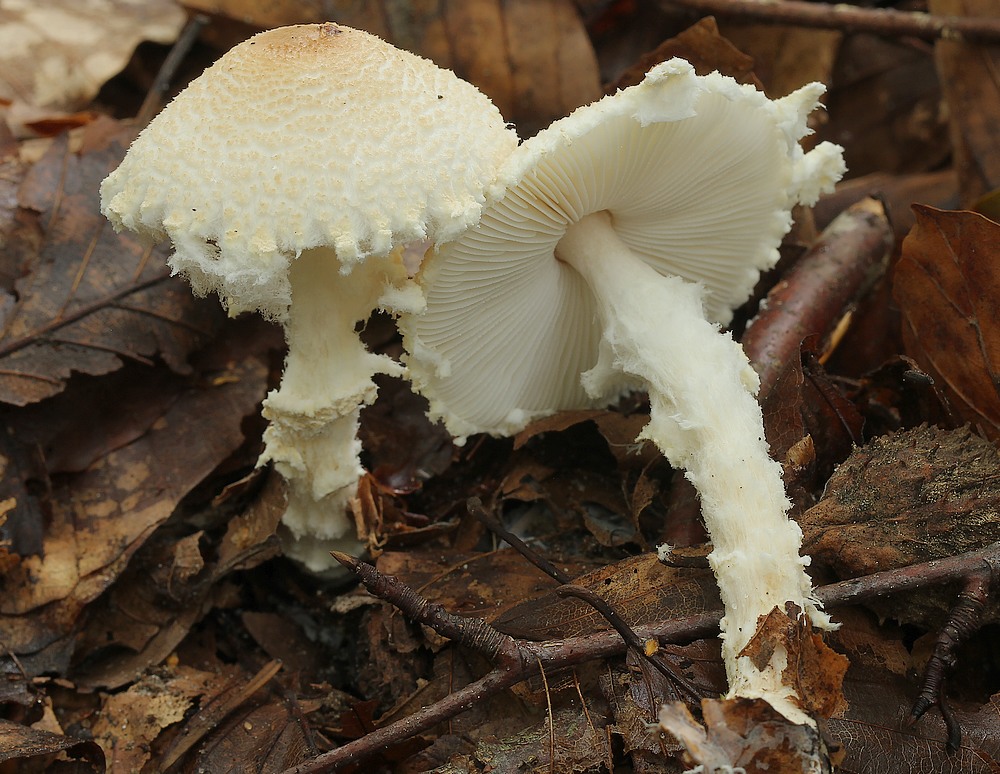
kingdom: Fungi
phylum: Basidiomycota
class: Agaricomycetes
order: Agaricales
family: Agaricaceae
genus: Lepiota
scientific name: Lepiota
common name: parasolhat
